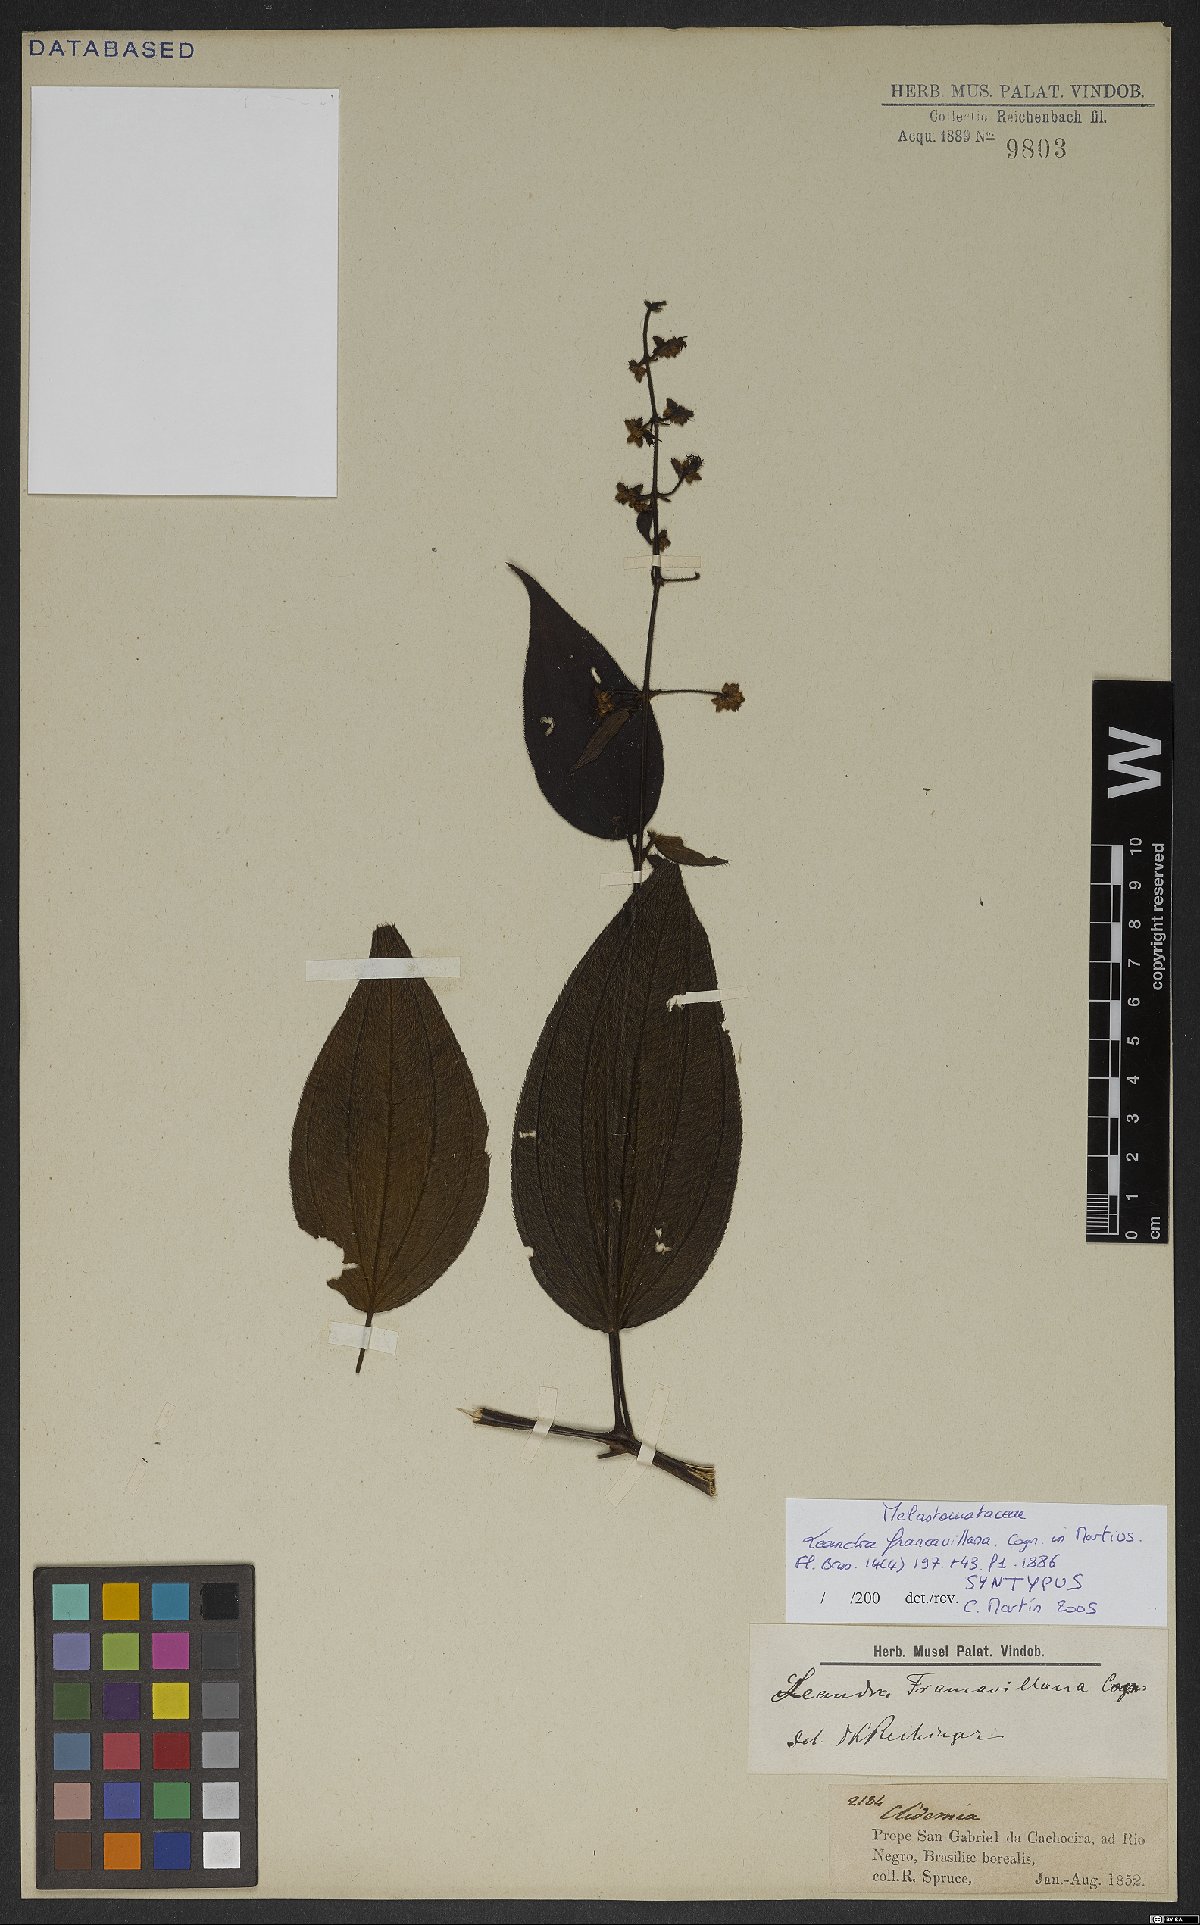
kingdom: Plantae
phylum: Tracheophyta
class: Magnoliopsida
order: Myrtales
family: Melastomataceae
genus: Miconia
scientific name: Miconia secunfrancavillana
